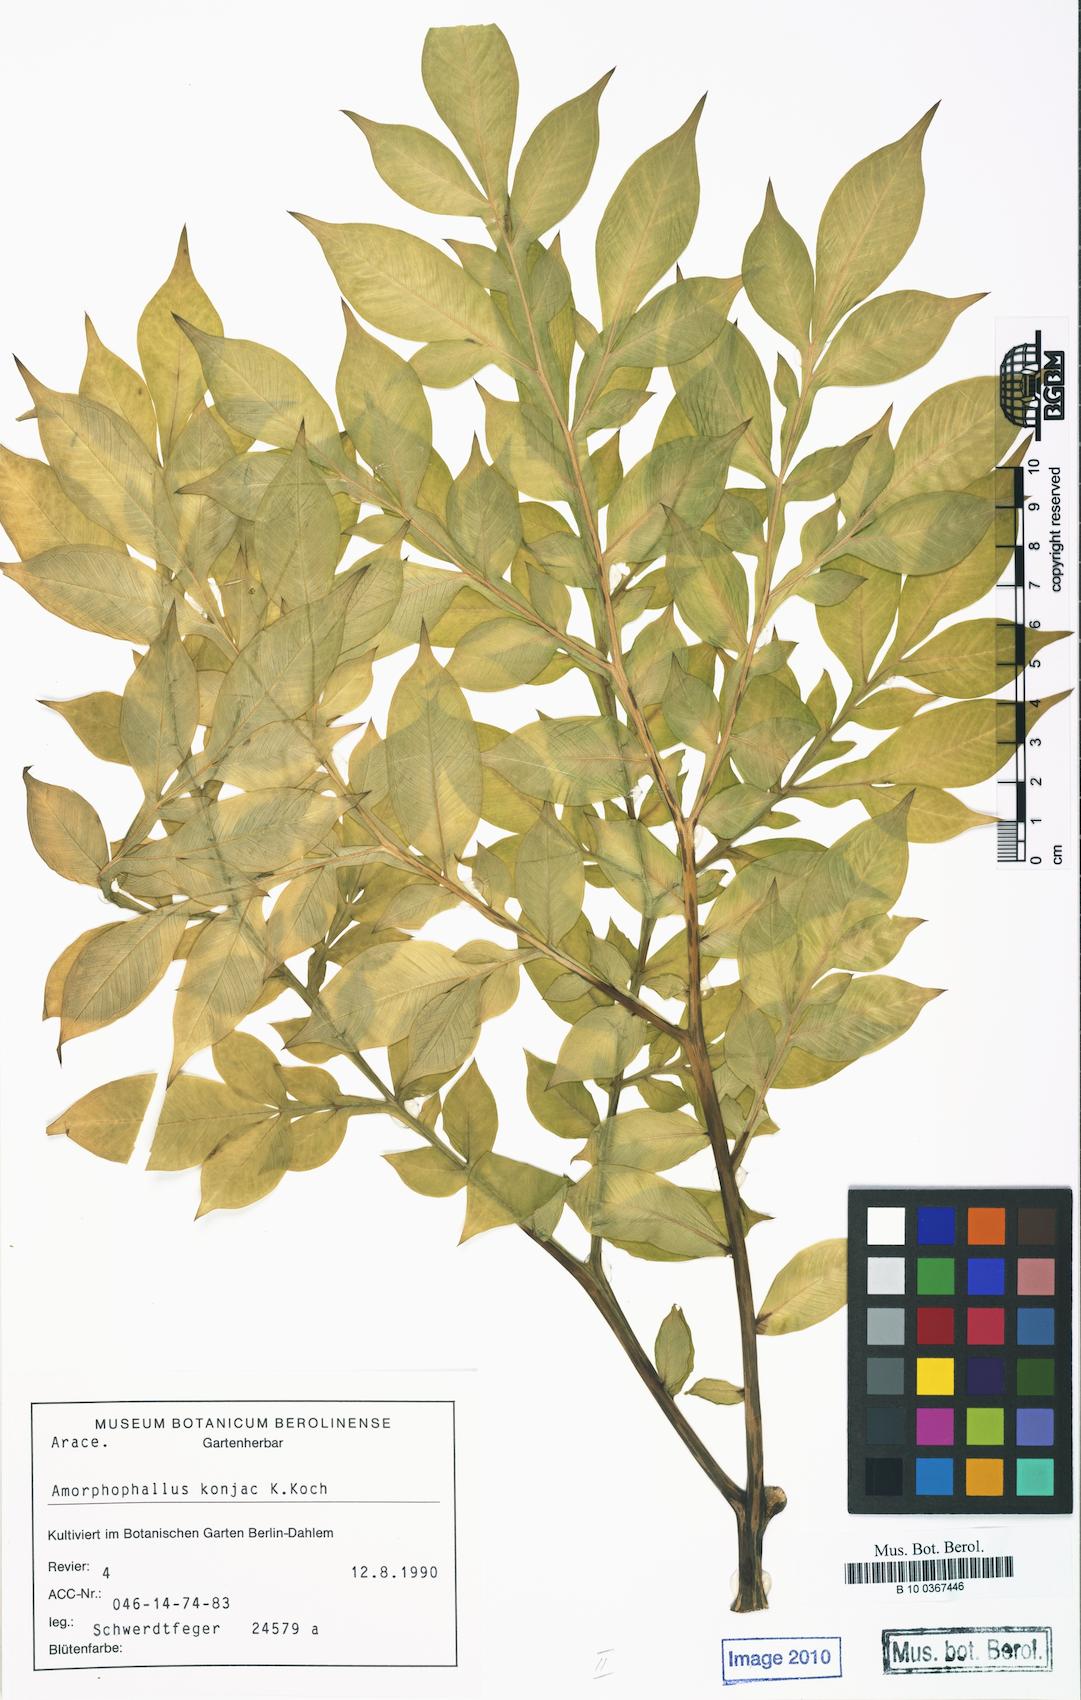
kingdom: Plantae
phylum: Tracheophyta
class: Liliopsida
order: Alismatales
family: Araceae
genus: Amorphophallus
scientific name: Amorphophallus konjac
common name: Umbrella arum
